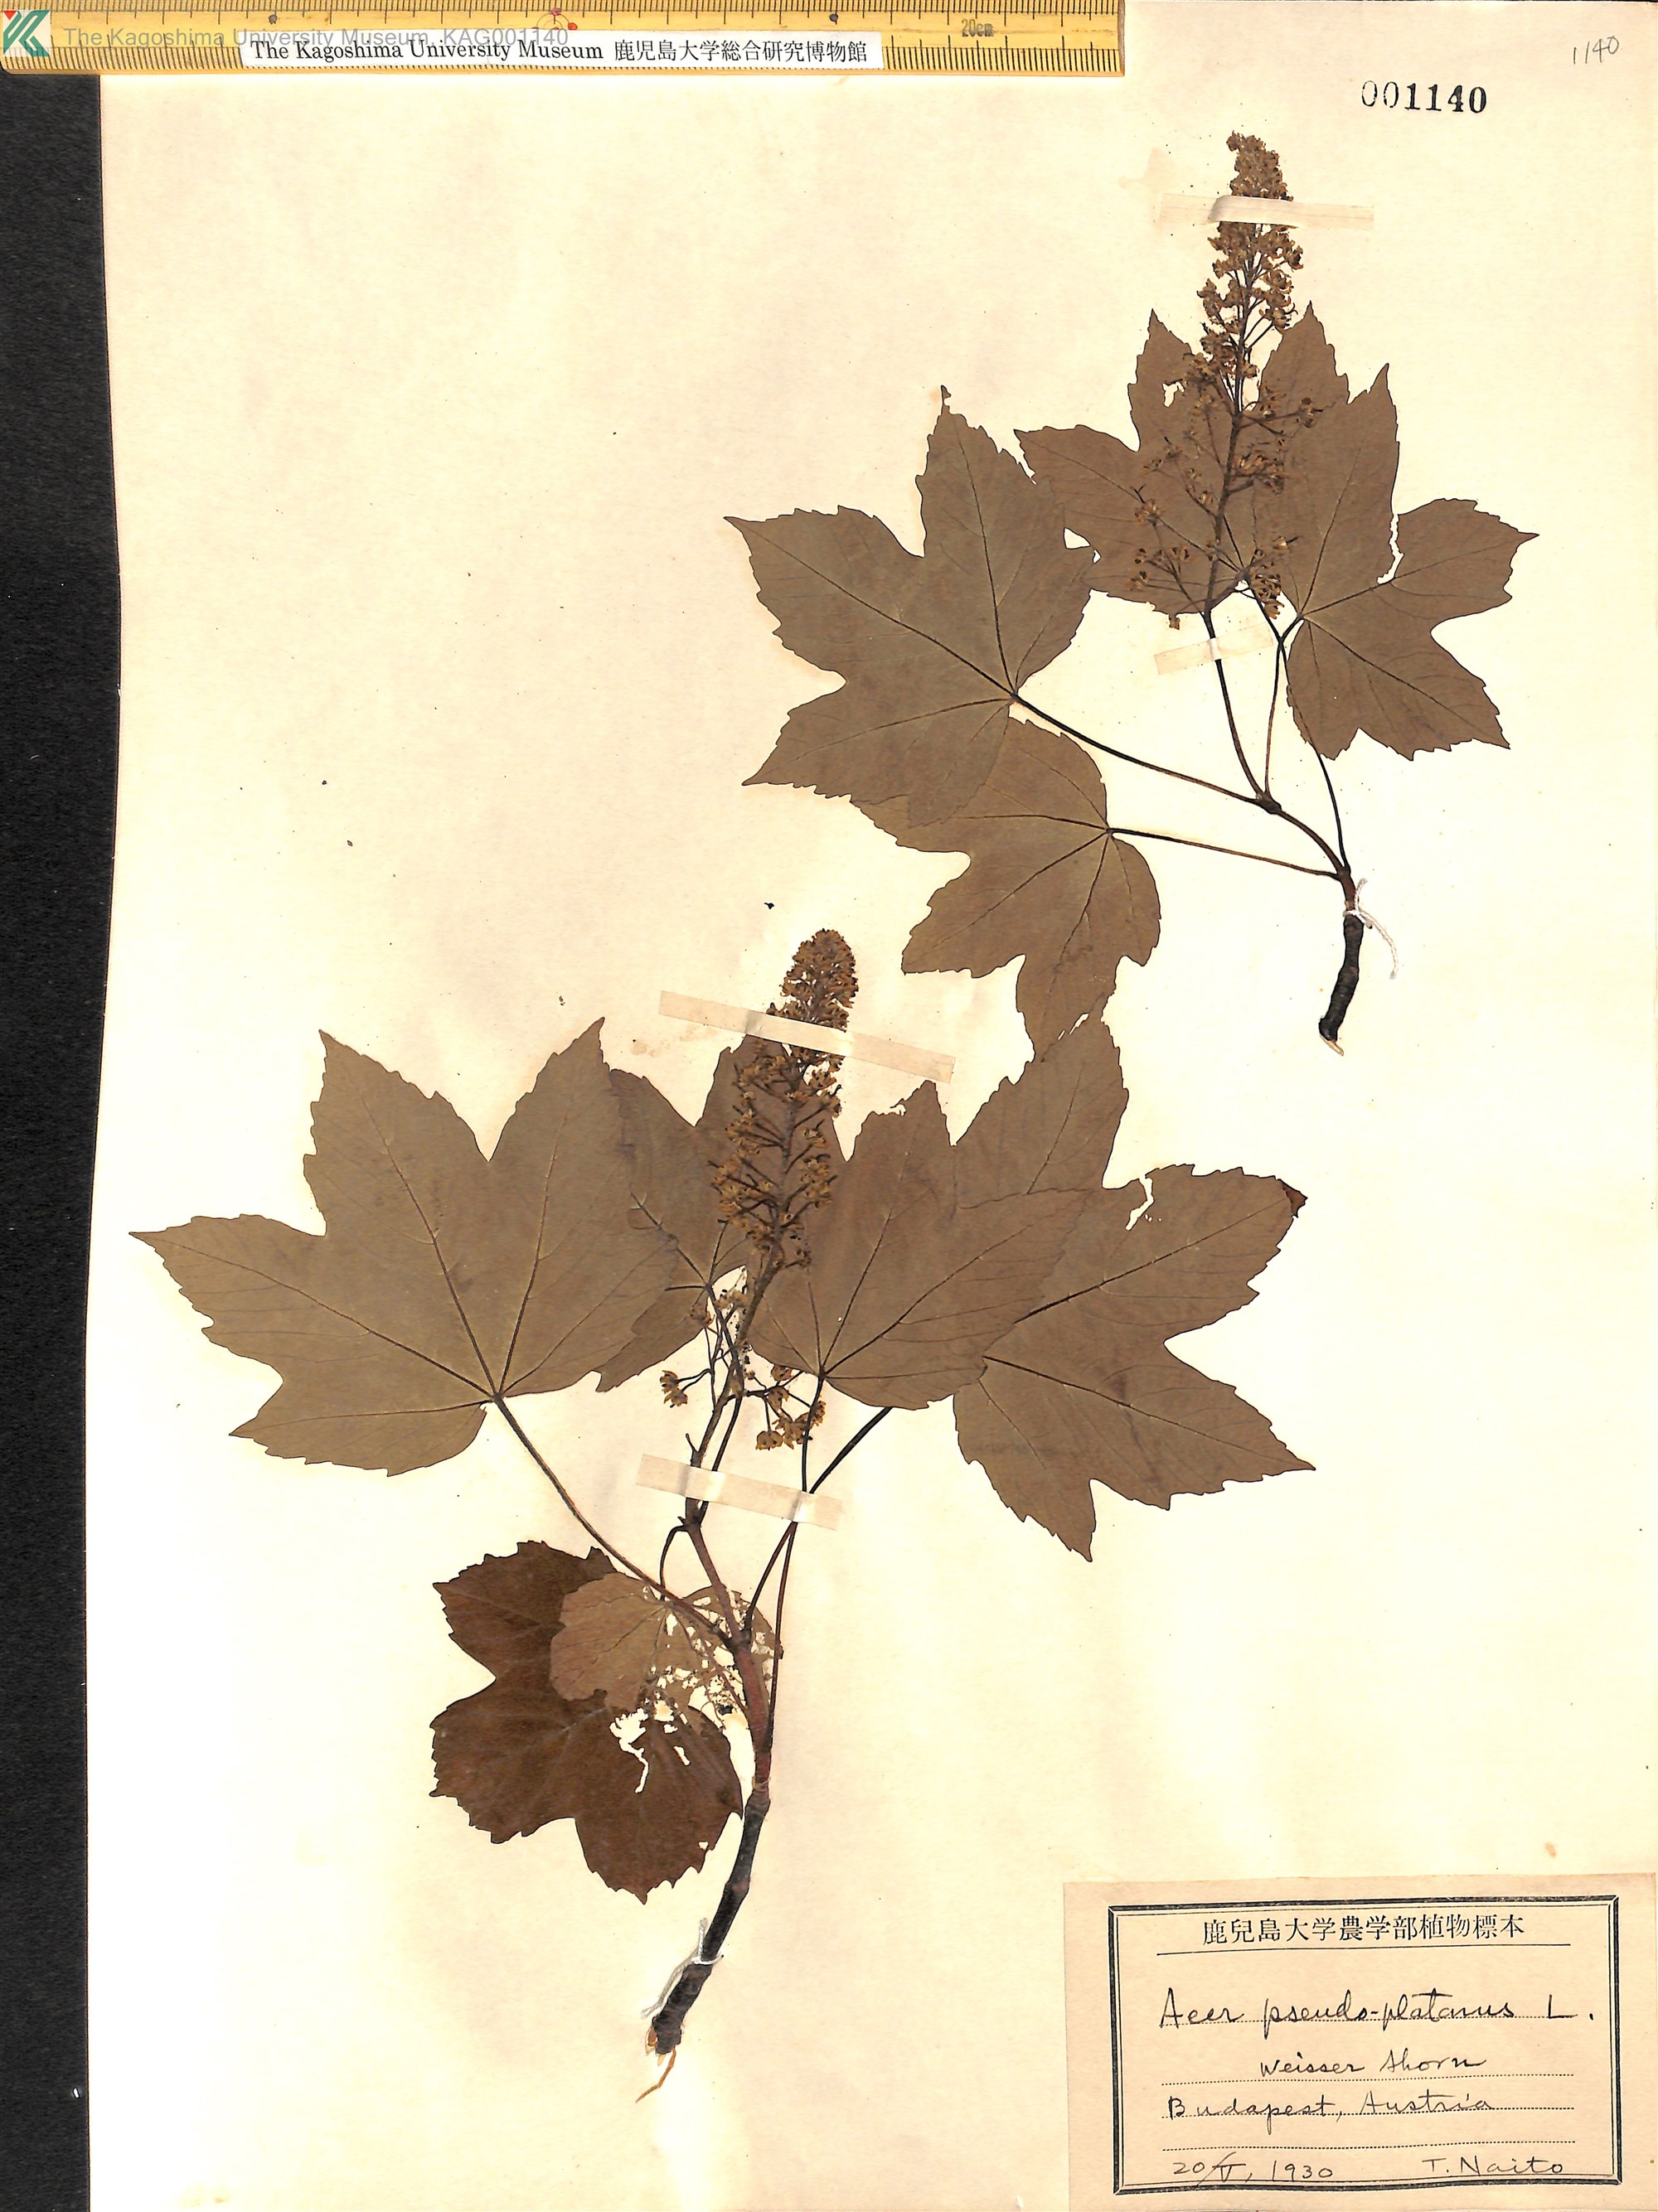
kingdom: Plantae
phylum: Tracheophyta
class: Magnoliopsida
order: Sapindales
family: Sapindaceae
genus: Acer
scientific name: Acer pseudoplatanus
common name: Sycamore
